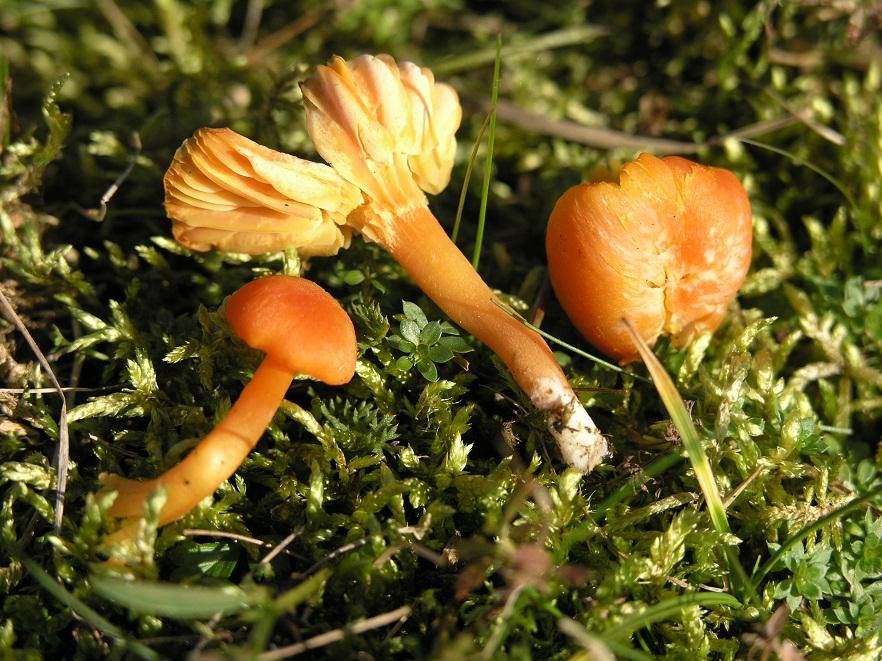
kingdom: Fungi
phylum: Basidiomycota
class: Agaricomycetes
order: Agaricales
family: Hygrophoraceae
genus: Hygrocybe
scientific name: Hygrocybe reidii
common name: honning-vokshat
